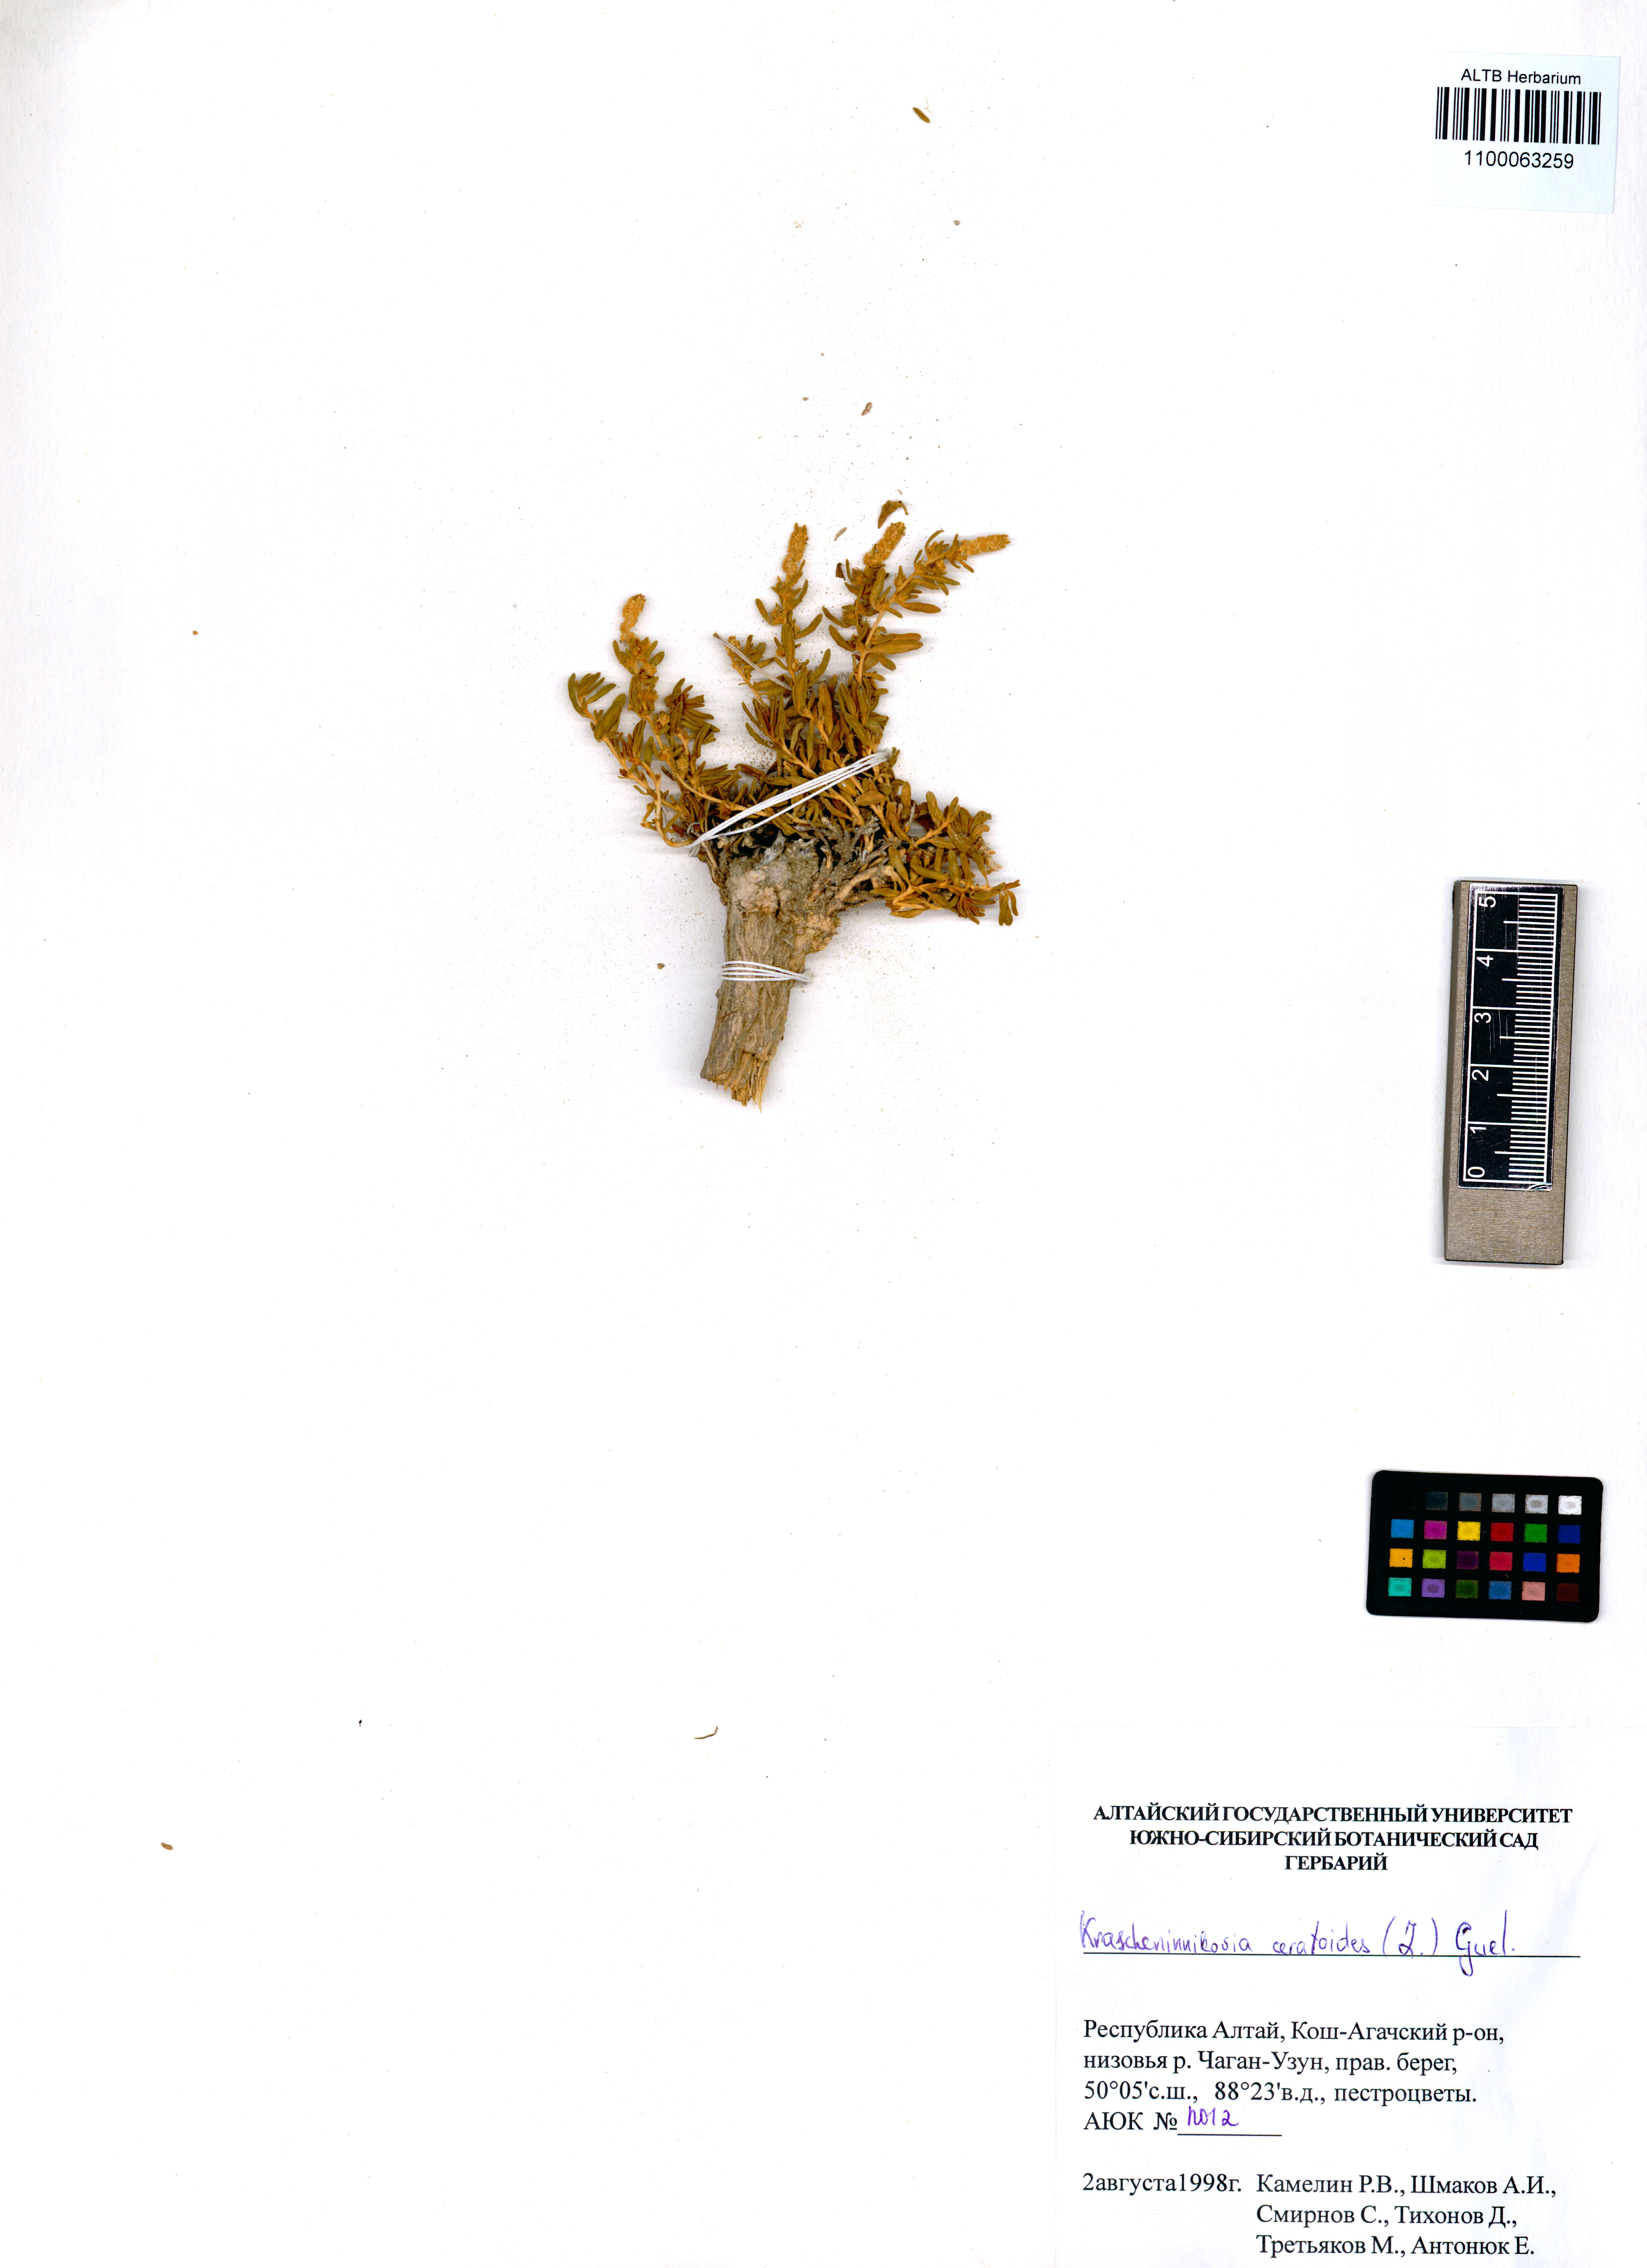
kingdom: Plantae
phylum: Tracheophyta
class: Magnoliopsida
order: Caryophyllales
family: Amaranthaceae
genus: Krascheninnikovia
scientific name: Krascheninnikovia ceratoides
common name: Pamirian winterfat
